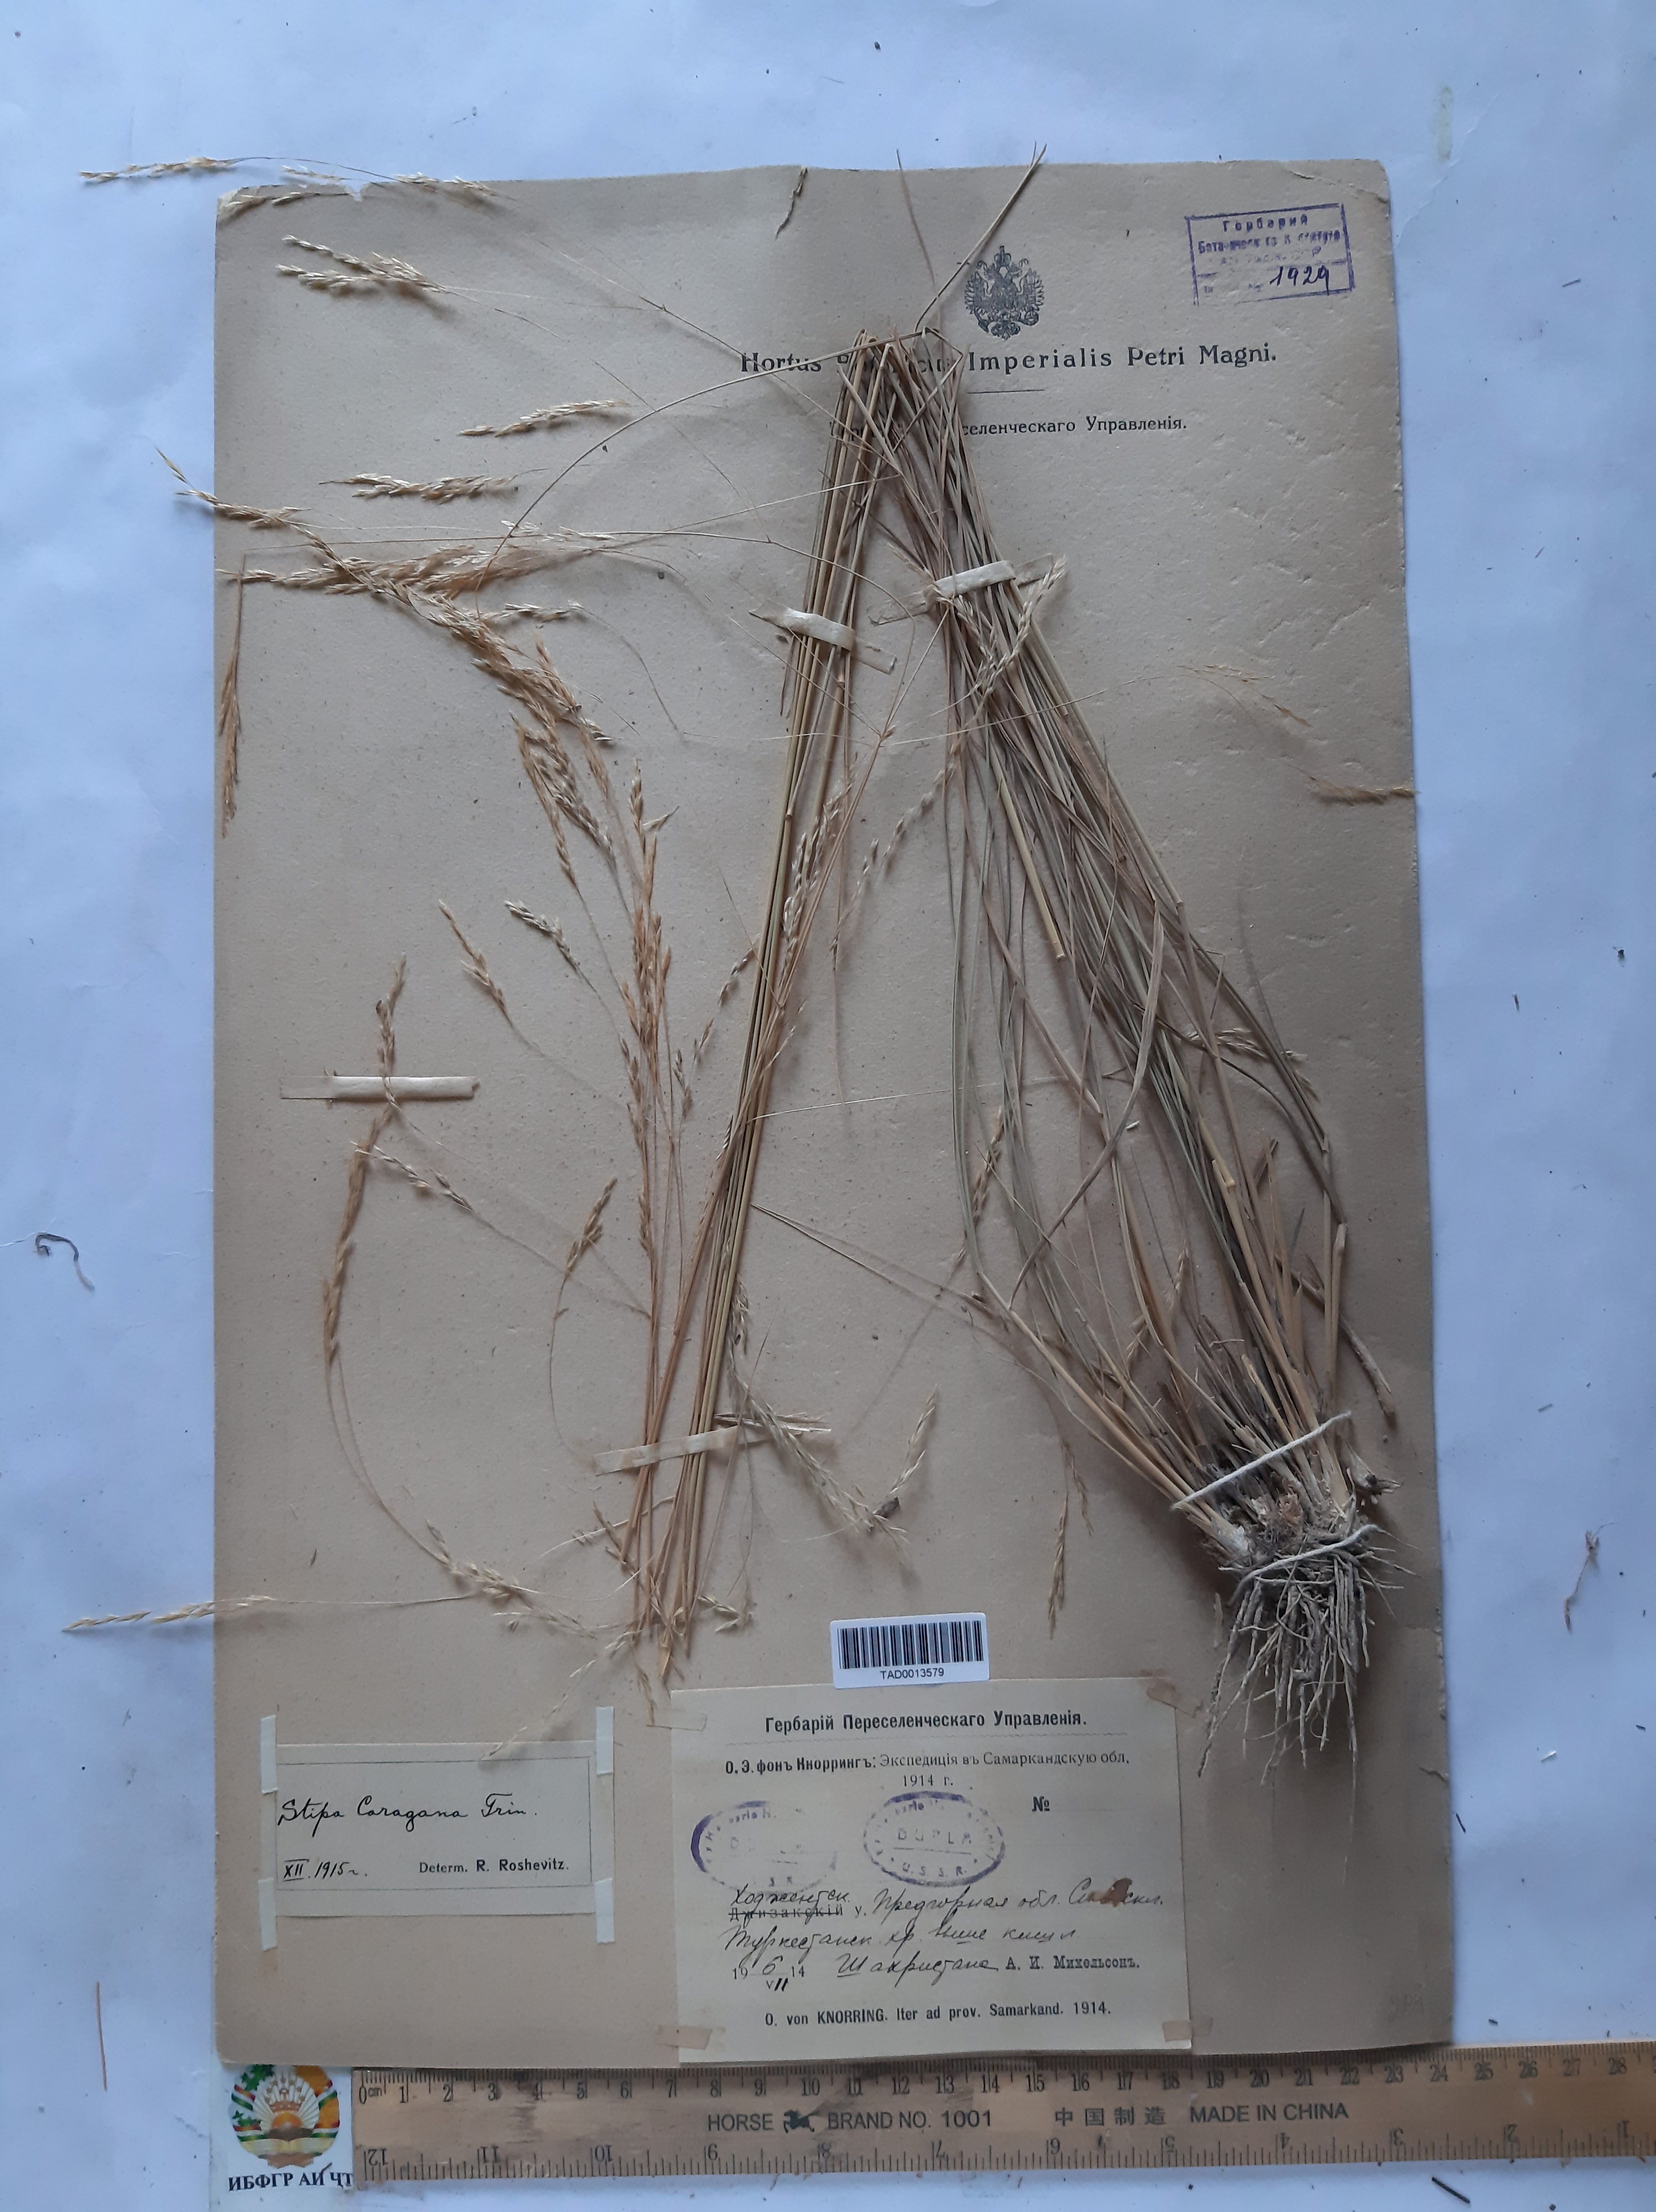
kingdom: Plantae
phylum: Tracheophyta
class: Liliopsida
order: Poales
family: Poaceae
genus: Stipa
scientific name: Stipa conferta
